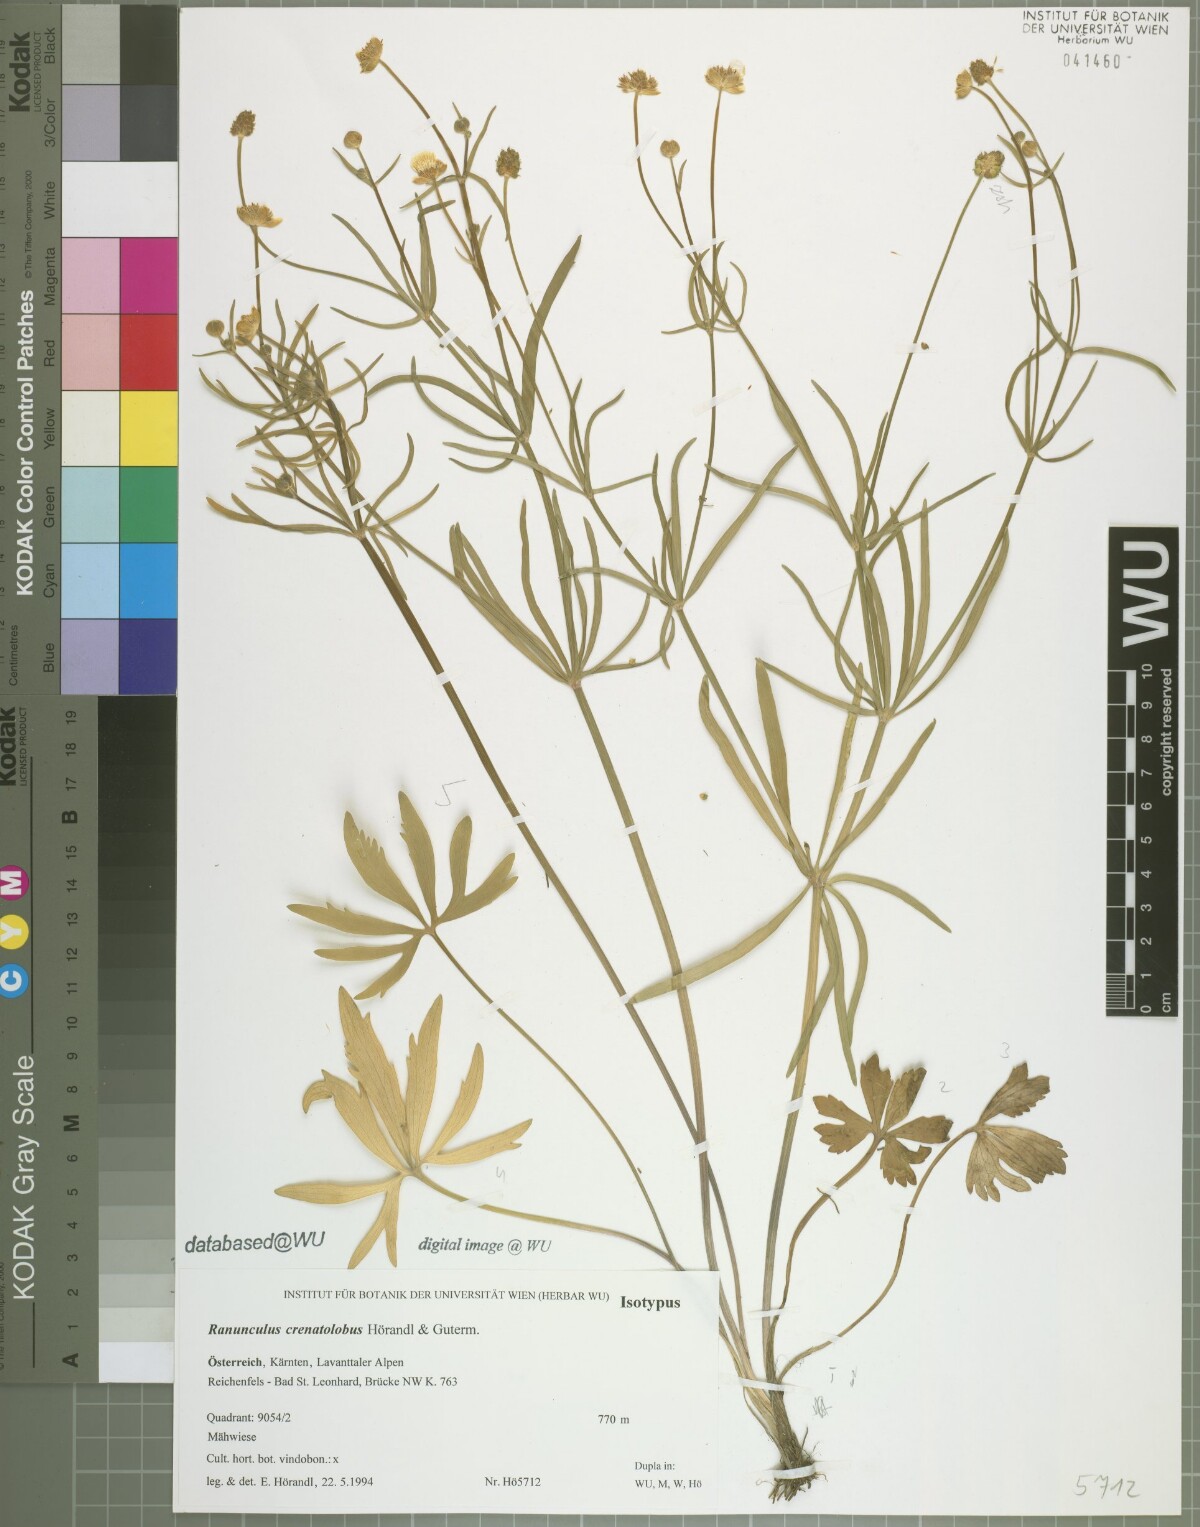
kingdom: Plantae
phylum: Tracheophyta
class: Magnoliopsida
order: Ranunculales
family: Ranunculaceae
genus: Ranunculus
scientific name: Ranunculus crenatolobus
